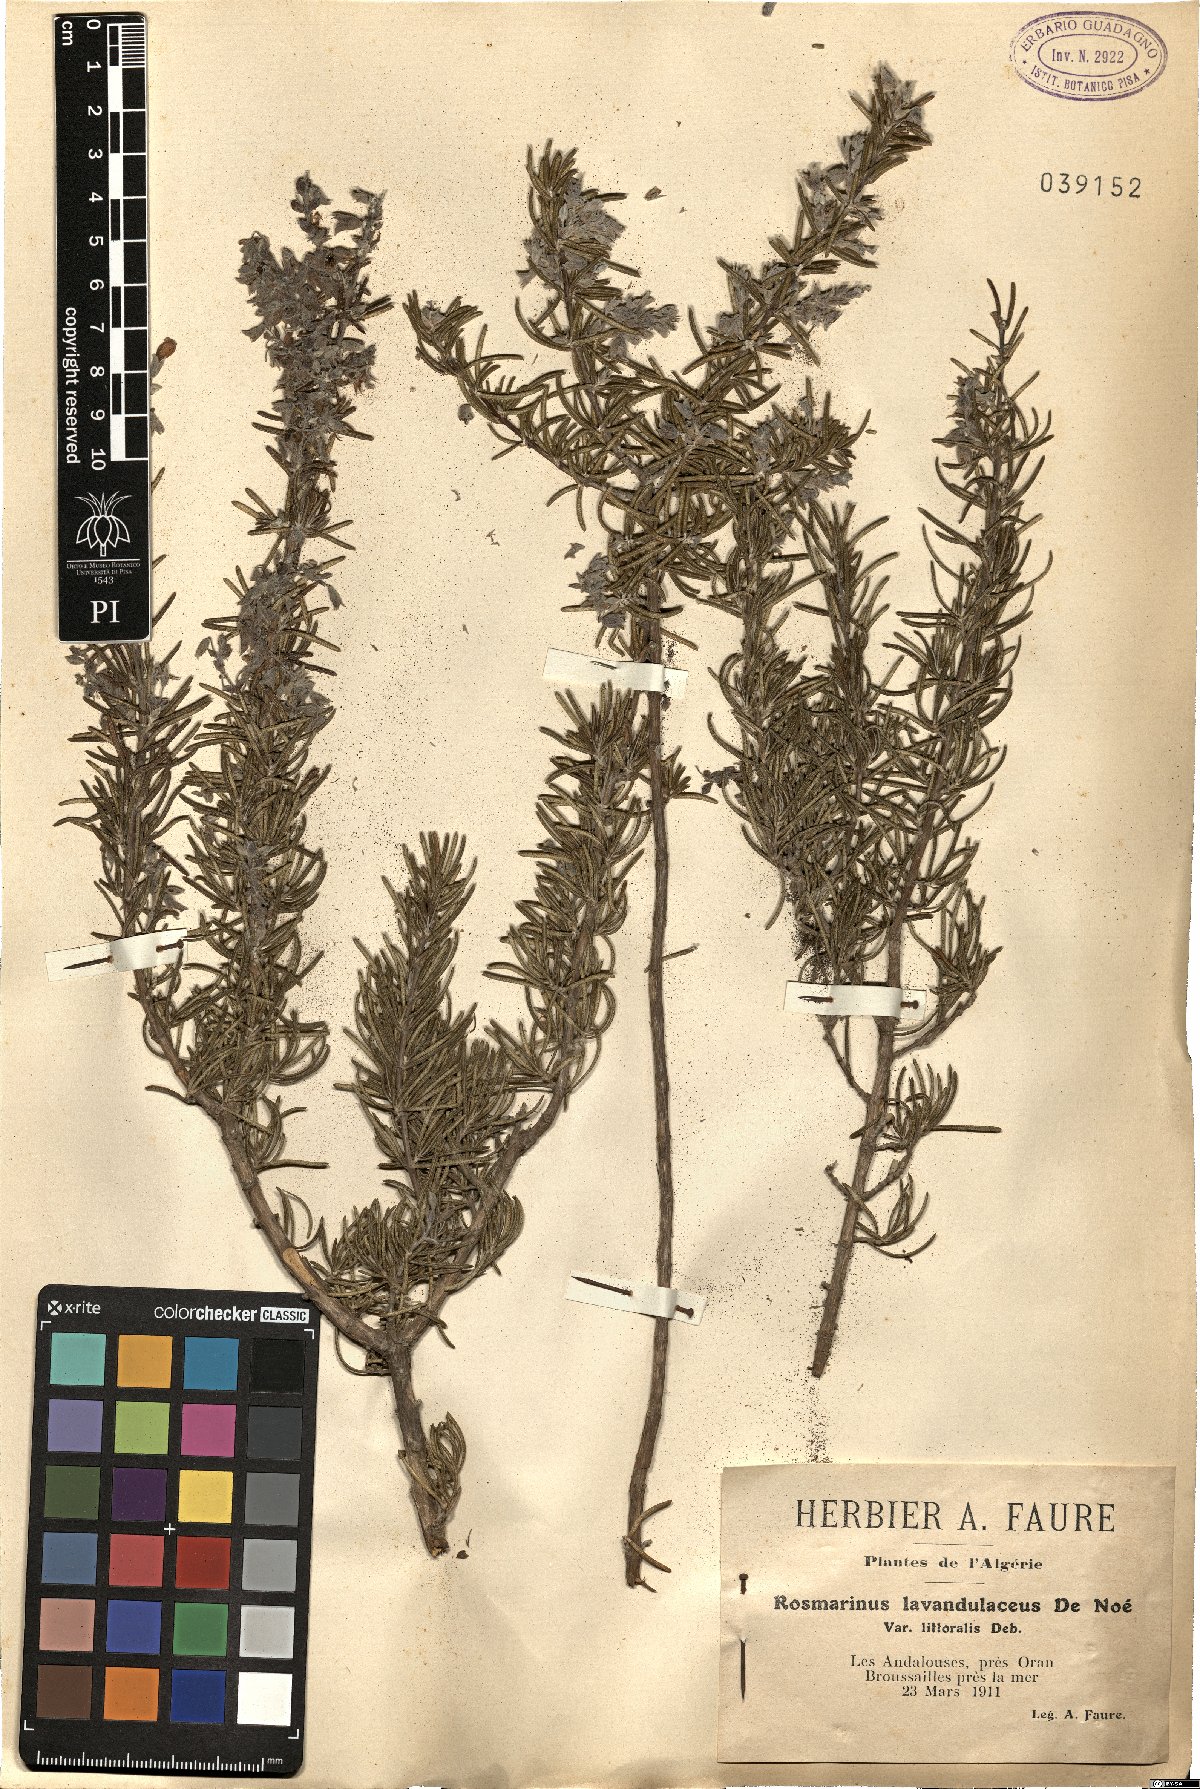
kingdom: Plantae
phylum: Tracheophyta
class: Magnoliopsida
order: Lamiales
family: Lamiaceae
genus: Salvia
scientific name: Salvia
